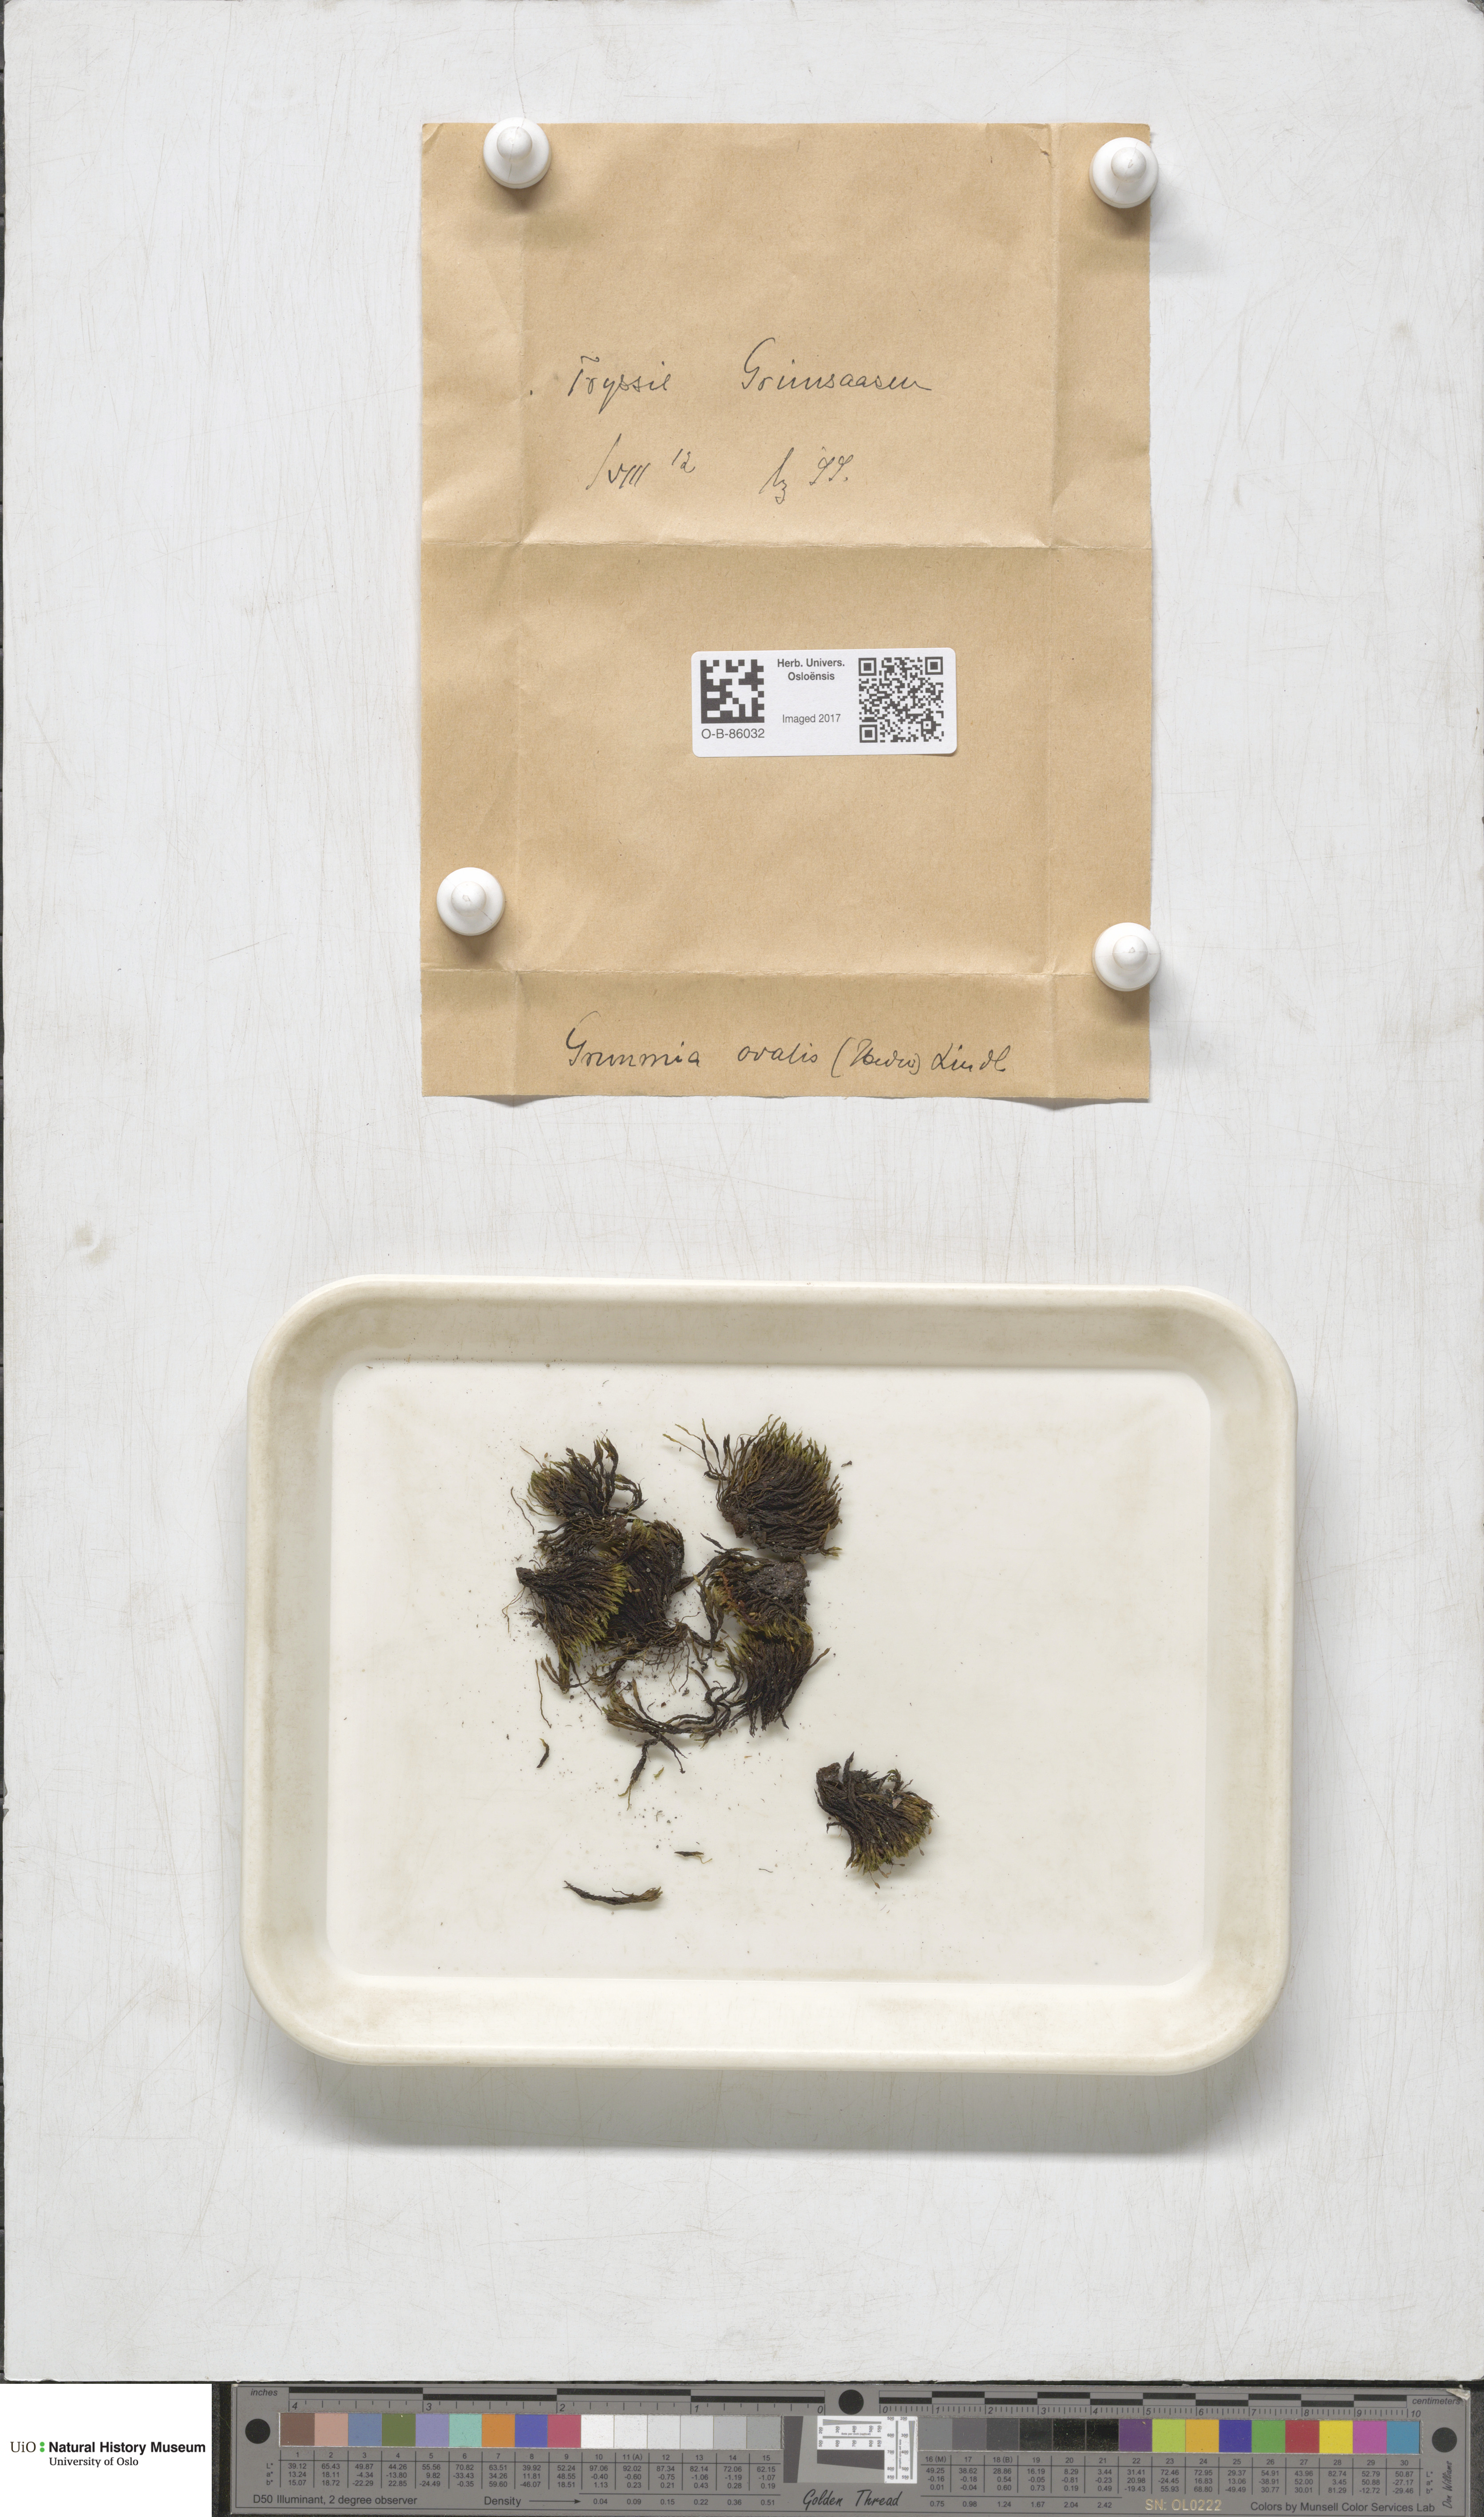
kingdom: Plantae
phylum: Bryophyta
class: Bryopsida
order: Grimmiales
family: Grimmiaceae
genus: Grimmia
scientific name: Grimmia ovalis
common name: Oval grimmia
